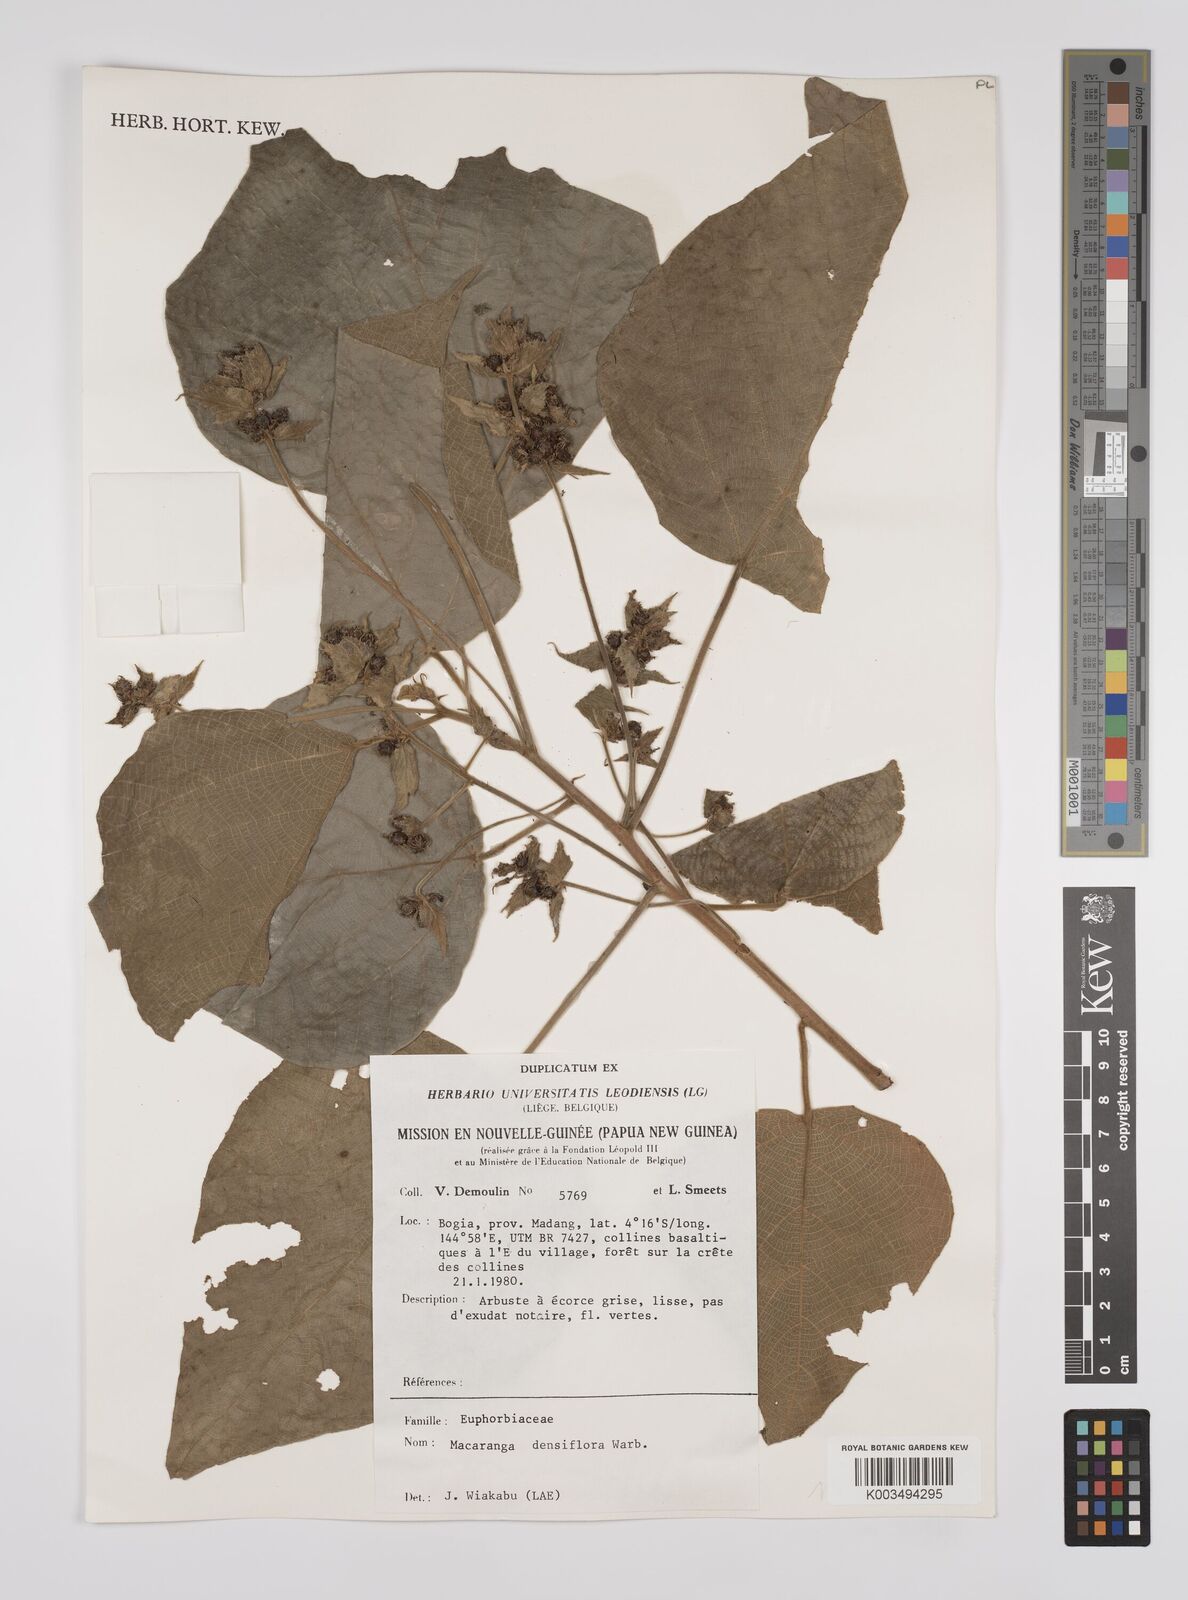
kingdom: Plantae
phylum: Tracheophyta
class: Magnoliopsida
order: Malpighiales
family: Euphorbiaceae
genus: Macaranga
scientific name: Macaranga densiflora
